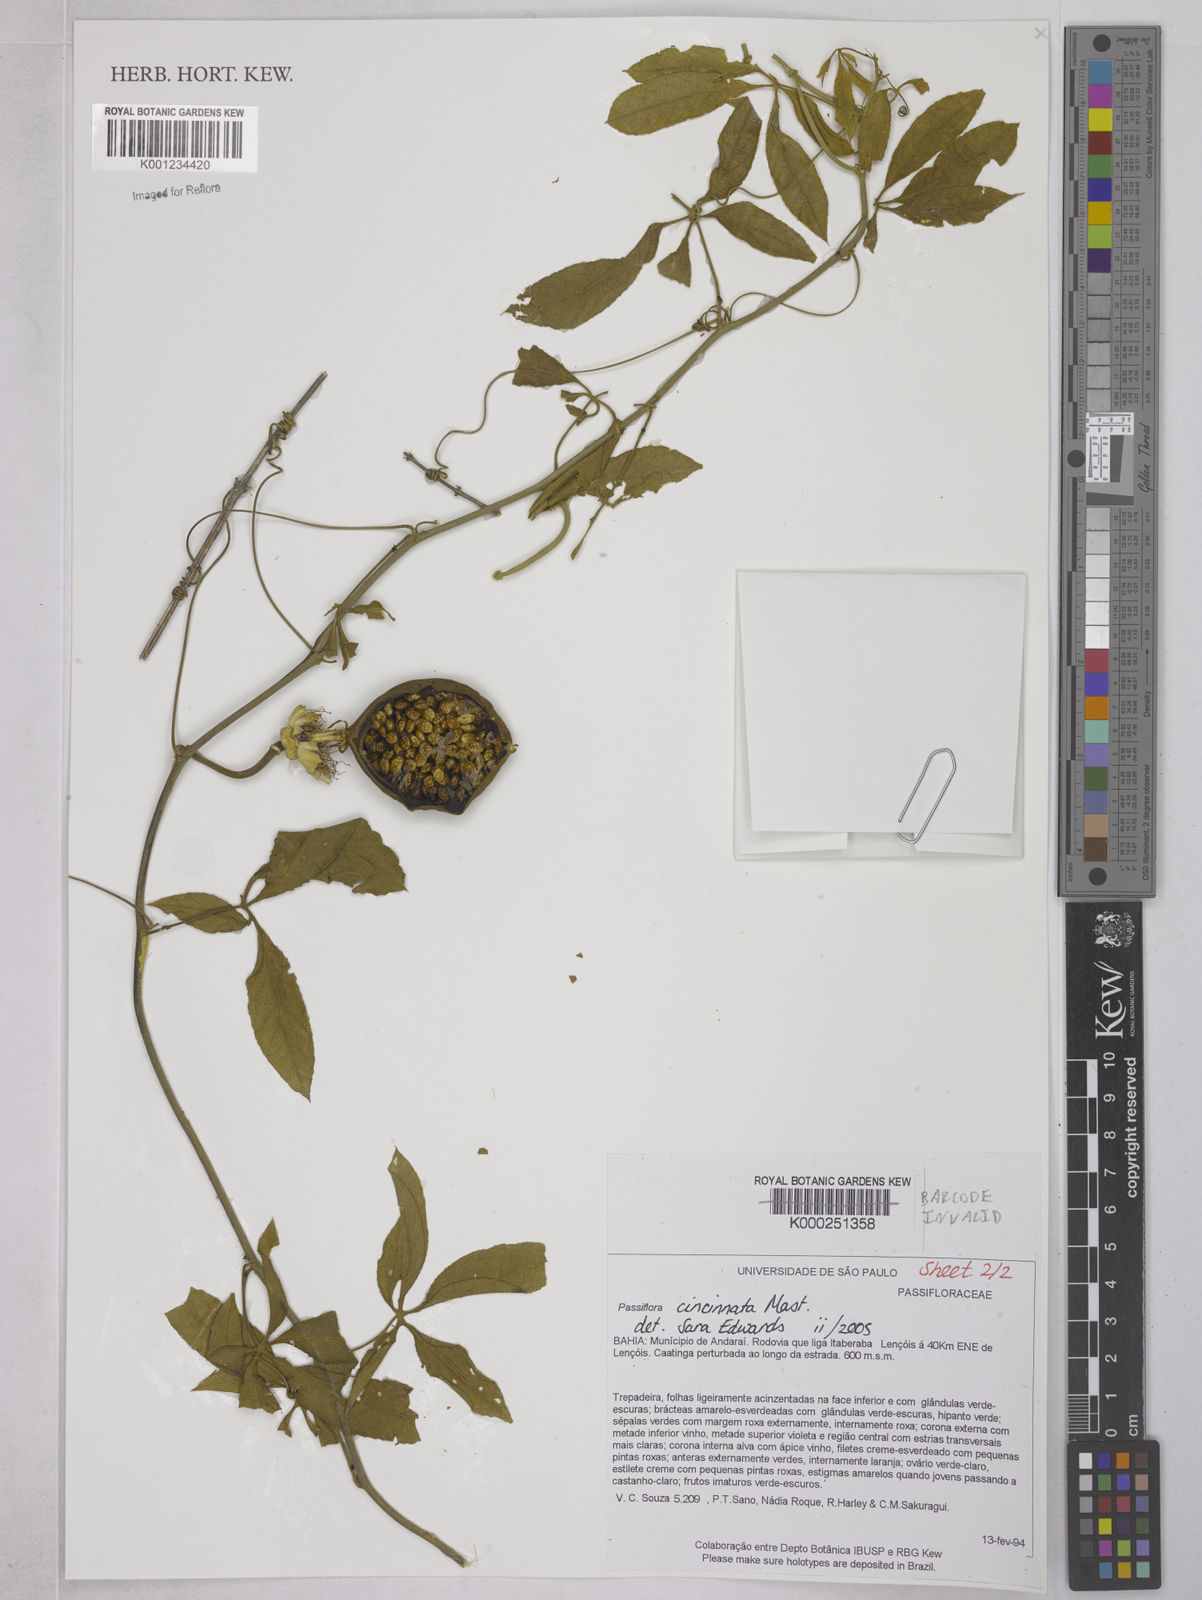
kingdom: Plantae
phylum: Tracheophyta
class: Magnoliopsida
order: Malpighiales
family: Passifloraceae
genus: Passiflora
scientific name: Passiflora cincinnata
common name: Crato passionvine
